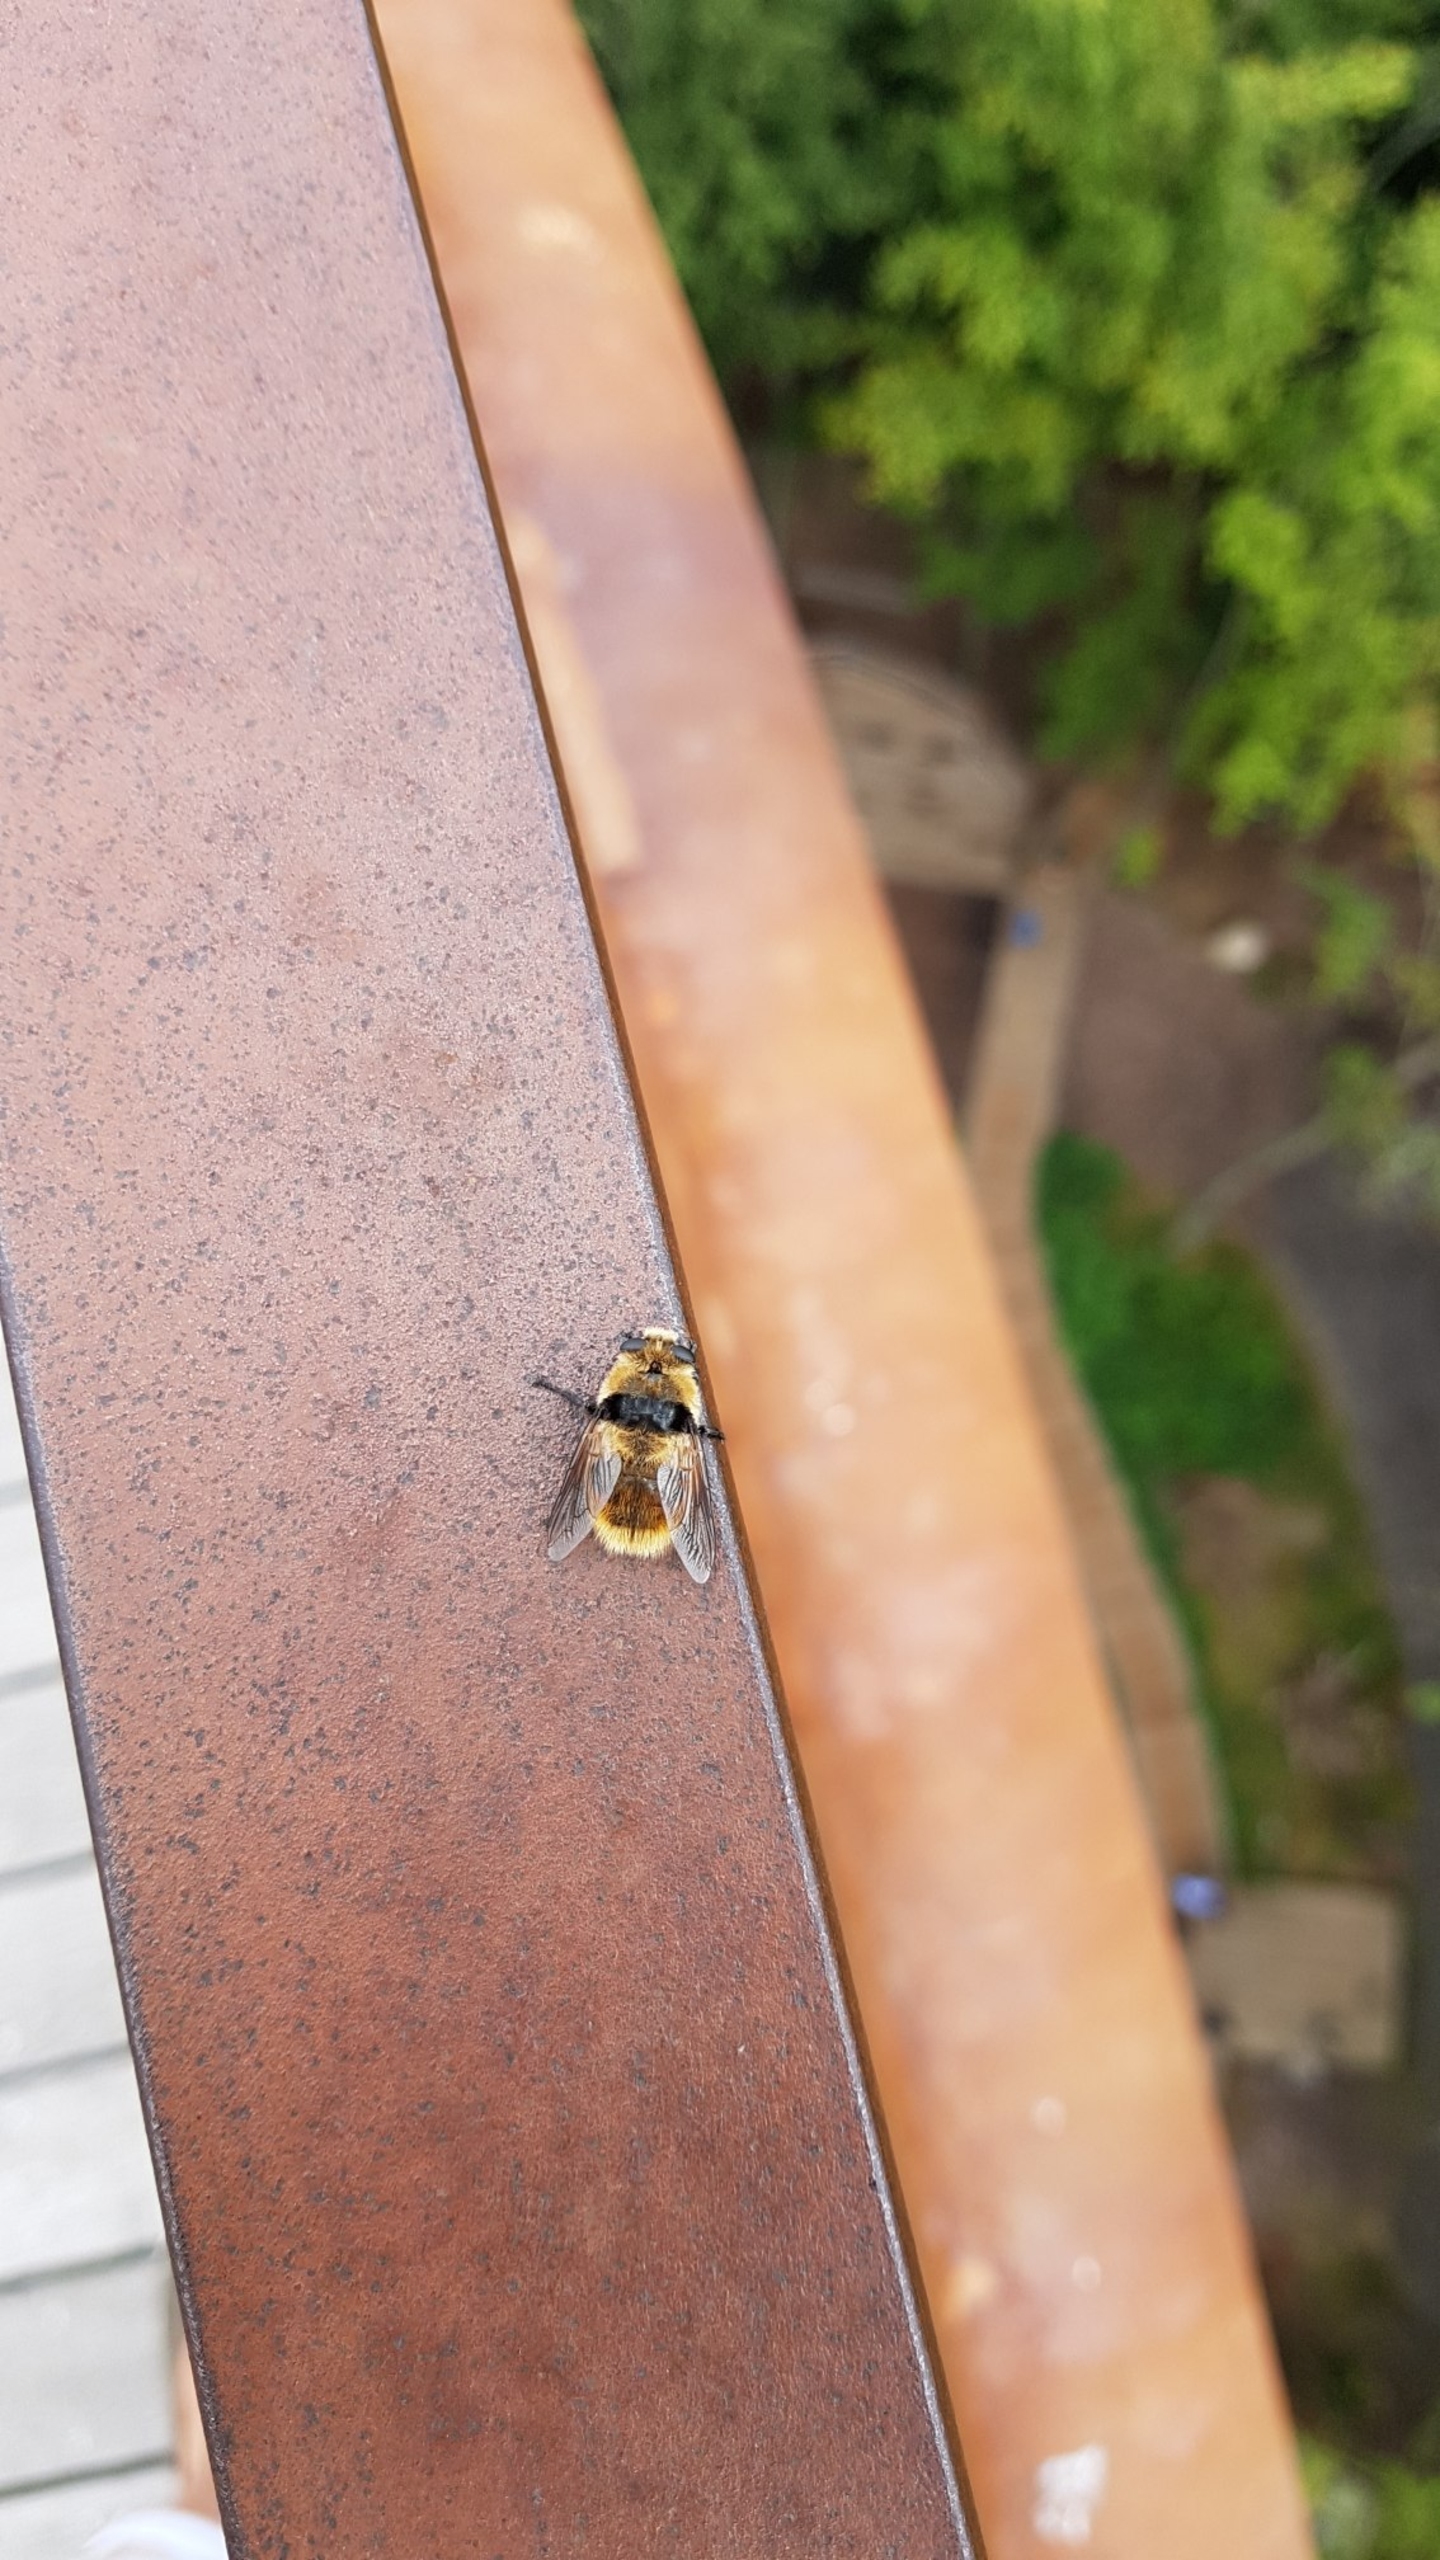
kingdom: Animalia
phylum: Arthropoda
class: Insecta
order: Diptera
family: Oestridae
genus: Cephenemyia
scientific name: Cephenemyia stimulator
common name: Rådyrets svælgbremse
